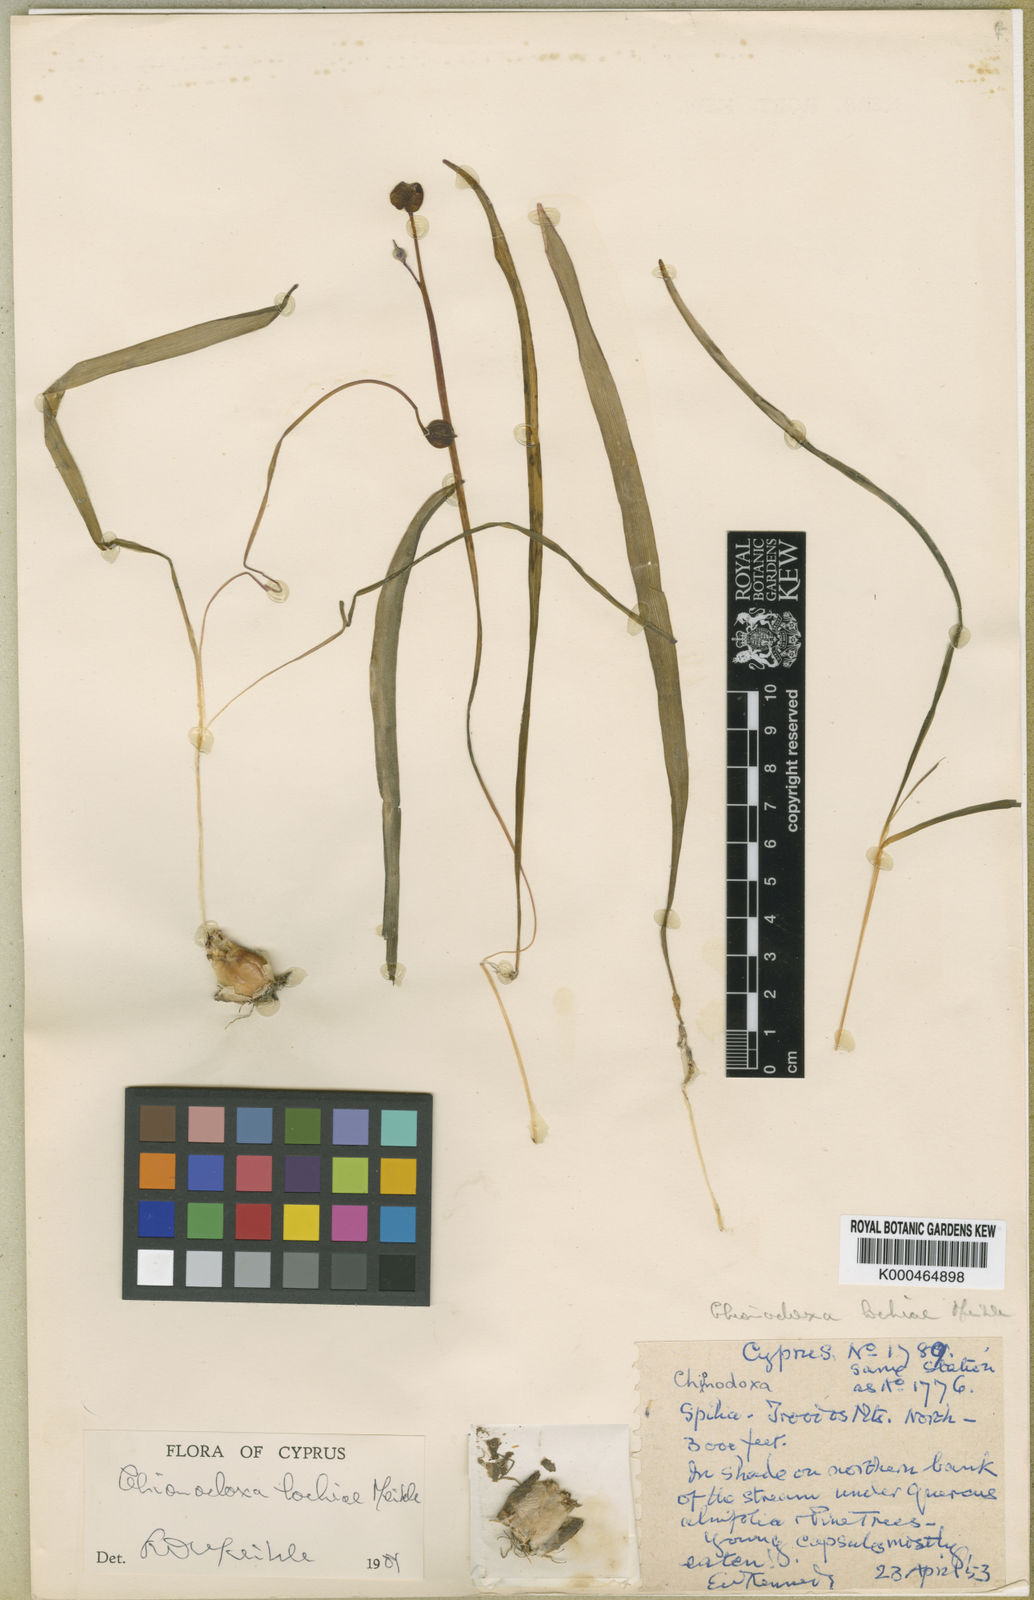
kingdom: Plantae
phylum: Tracheophyta
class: Liliopsida
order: Asparagales
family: Asparagaceae
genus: Scilla
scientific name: Scilla lochiae
